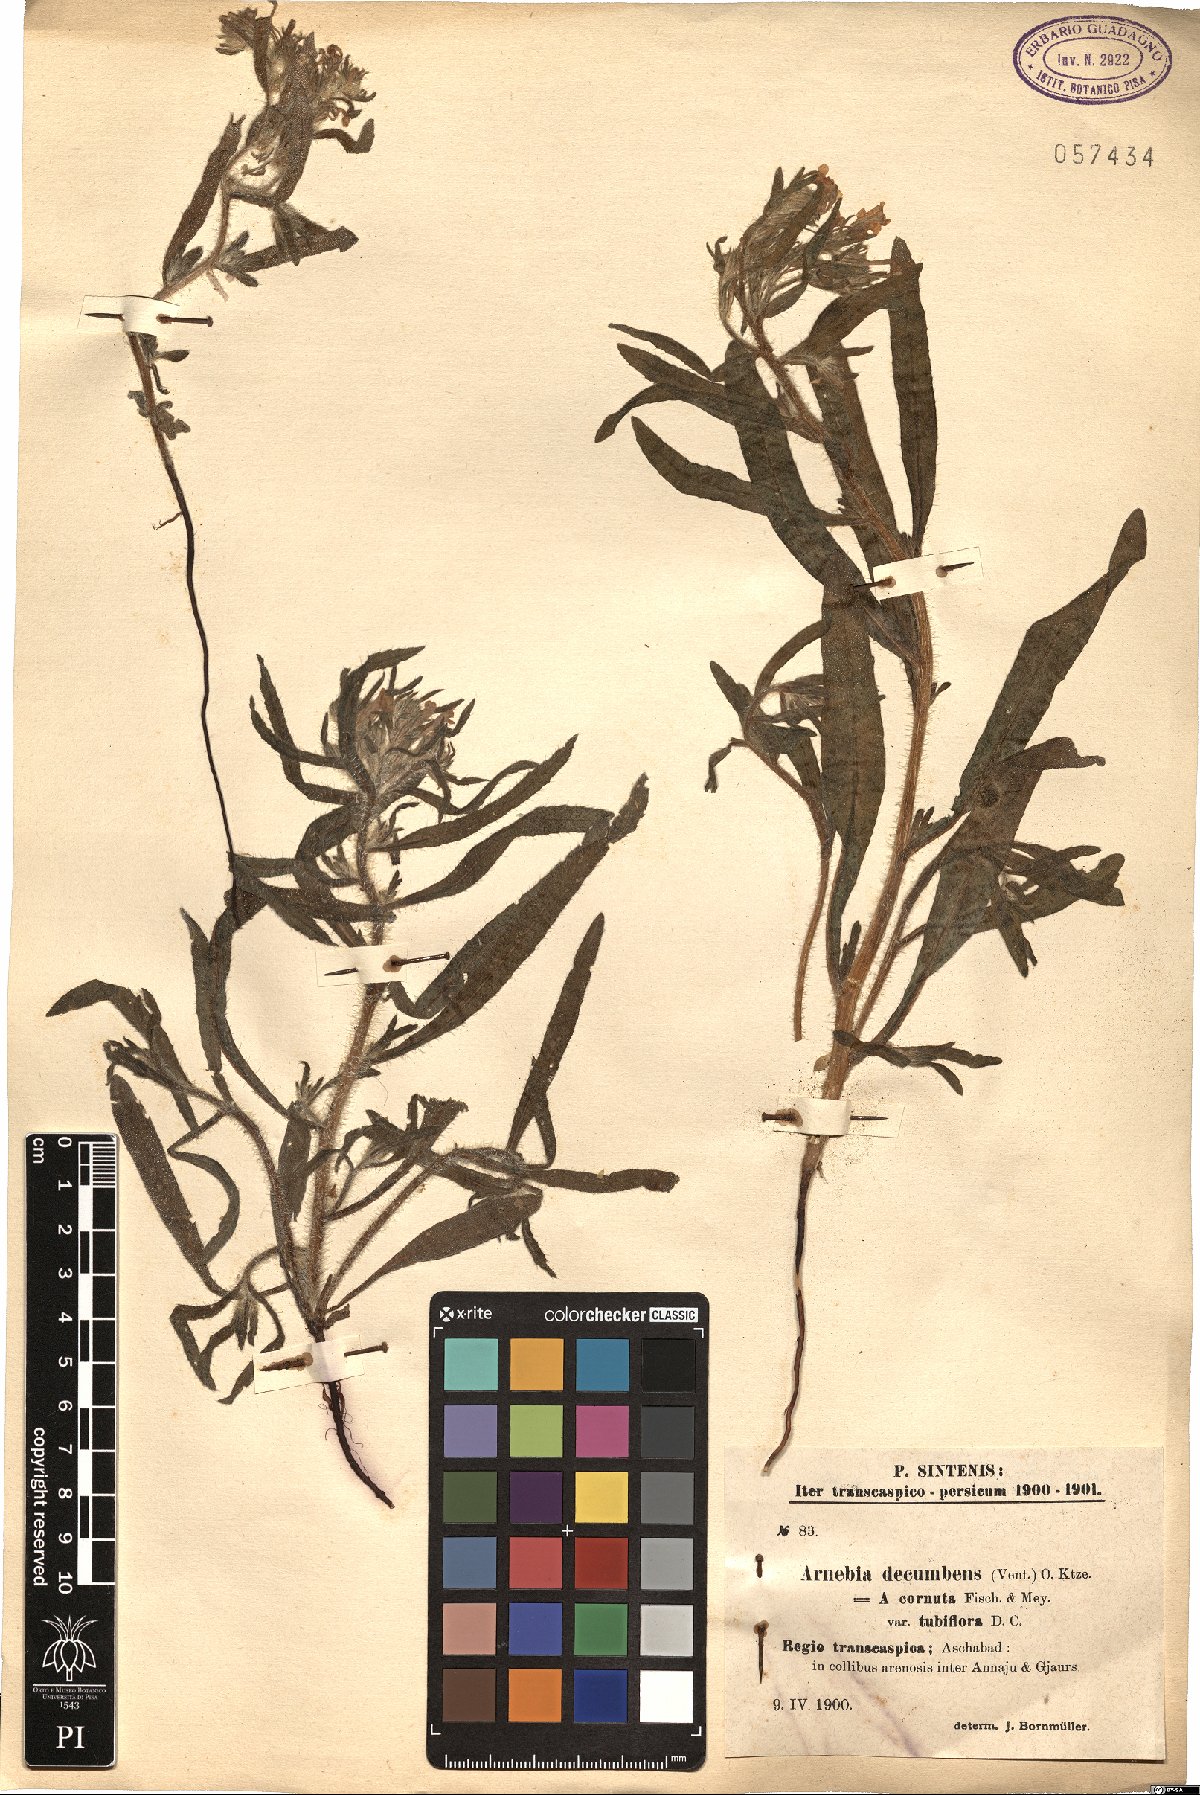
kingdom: Plantae
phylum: Tracheophyta
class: Magnoliopsida
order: Boraginales
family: Boraginaceae
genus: Arnebia
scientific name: Arnebia decumbens
